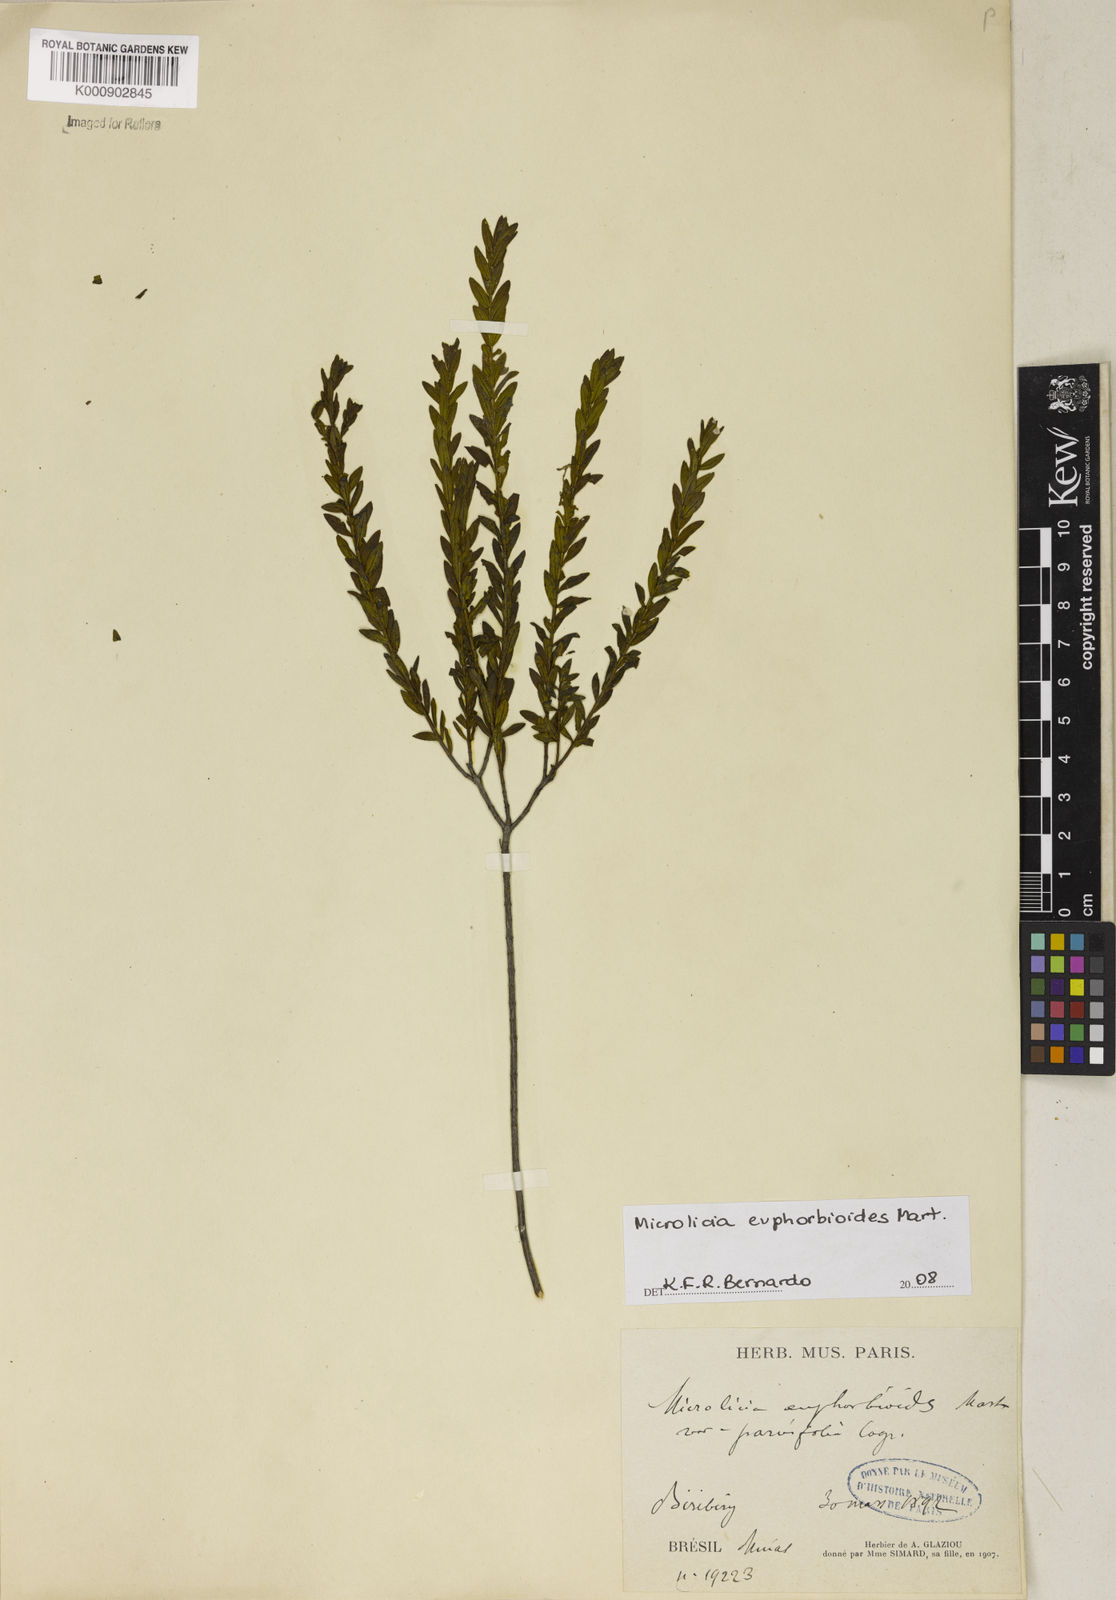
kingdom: Plantae
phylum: Tracheophyta
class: Magnoliopsida
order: Malpighiales
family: Podostemaceae
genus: Diamantina
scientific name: Diamantina
